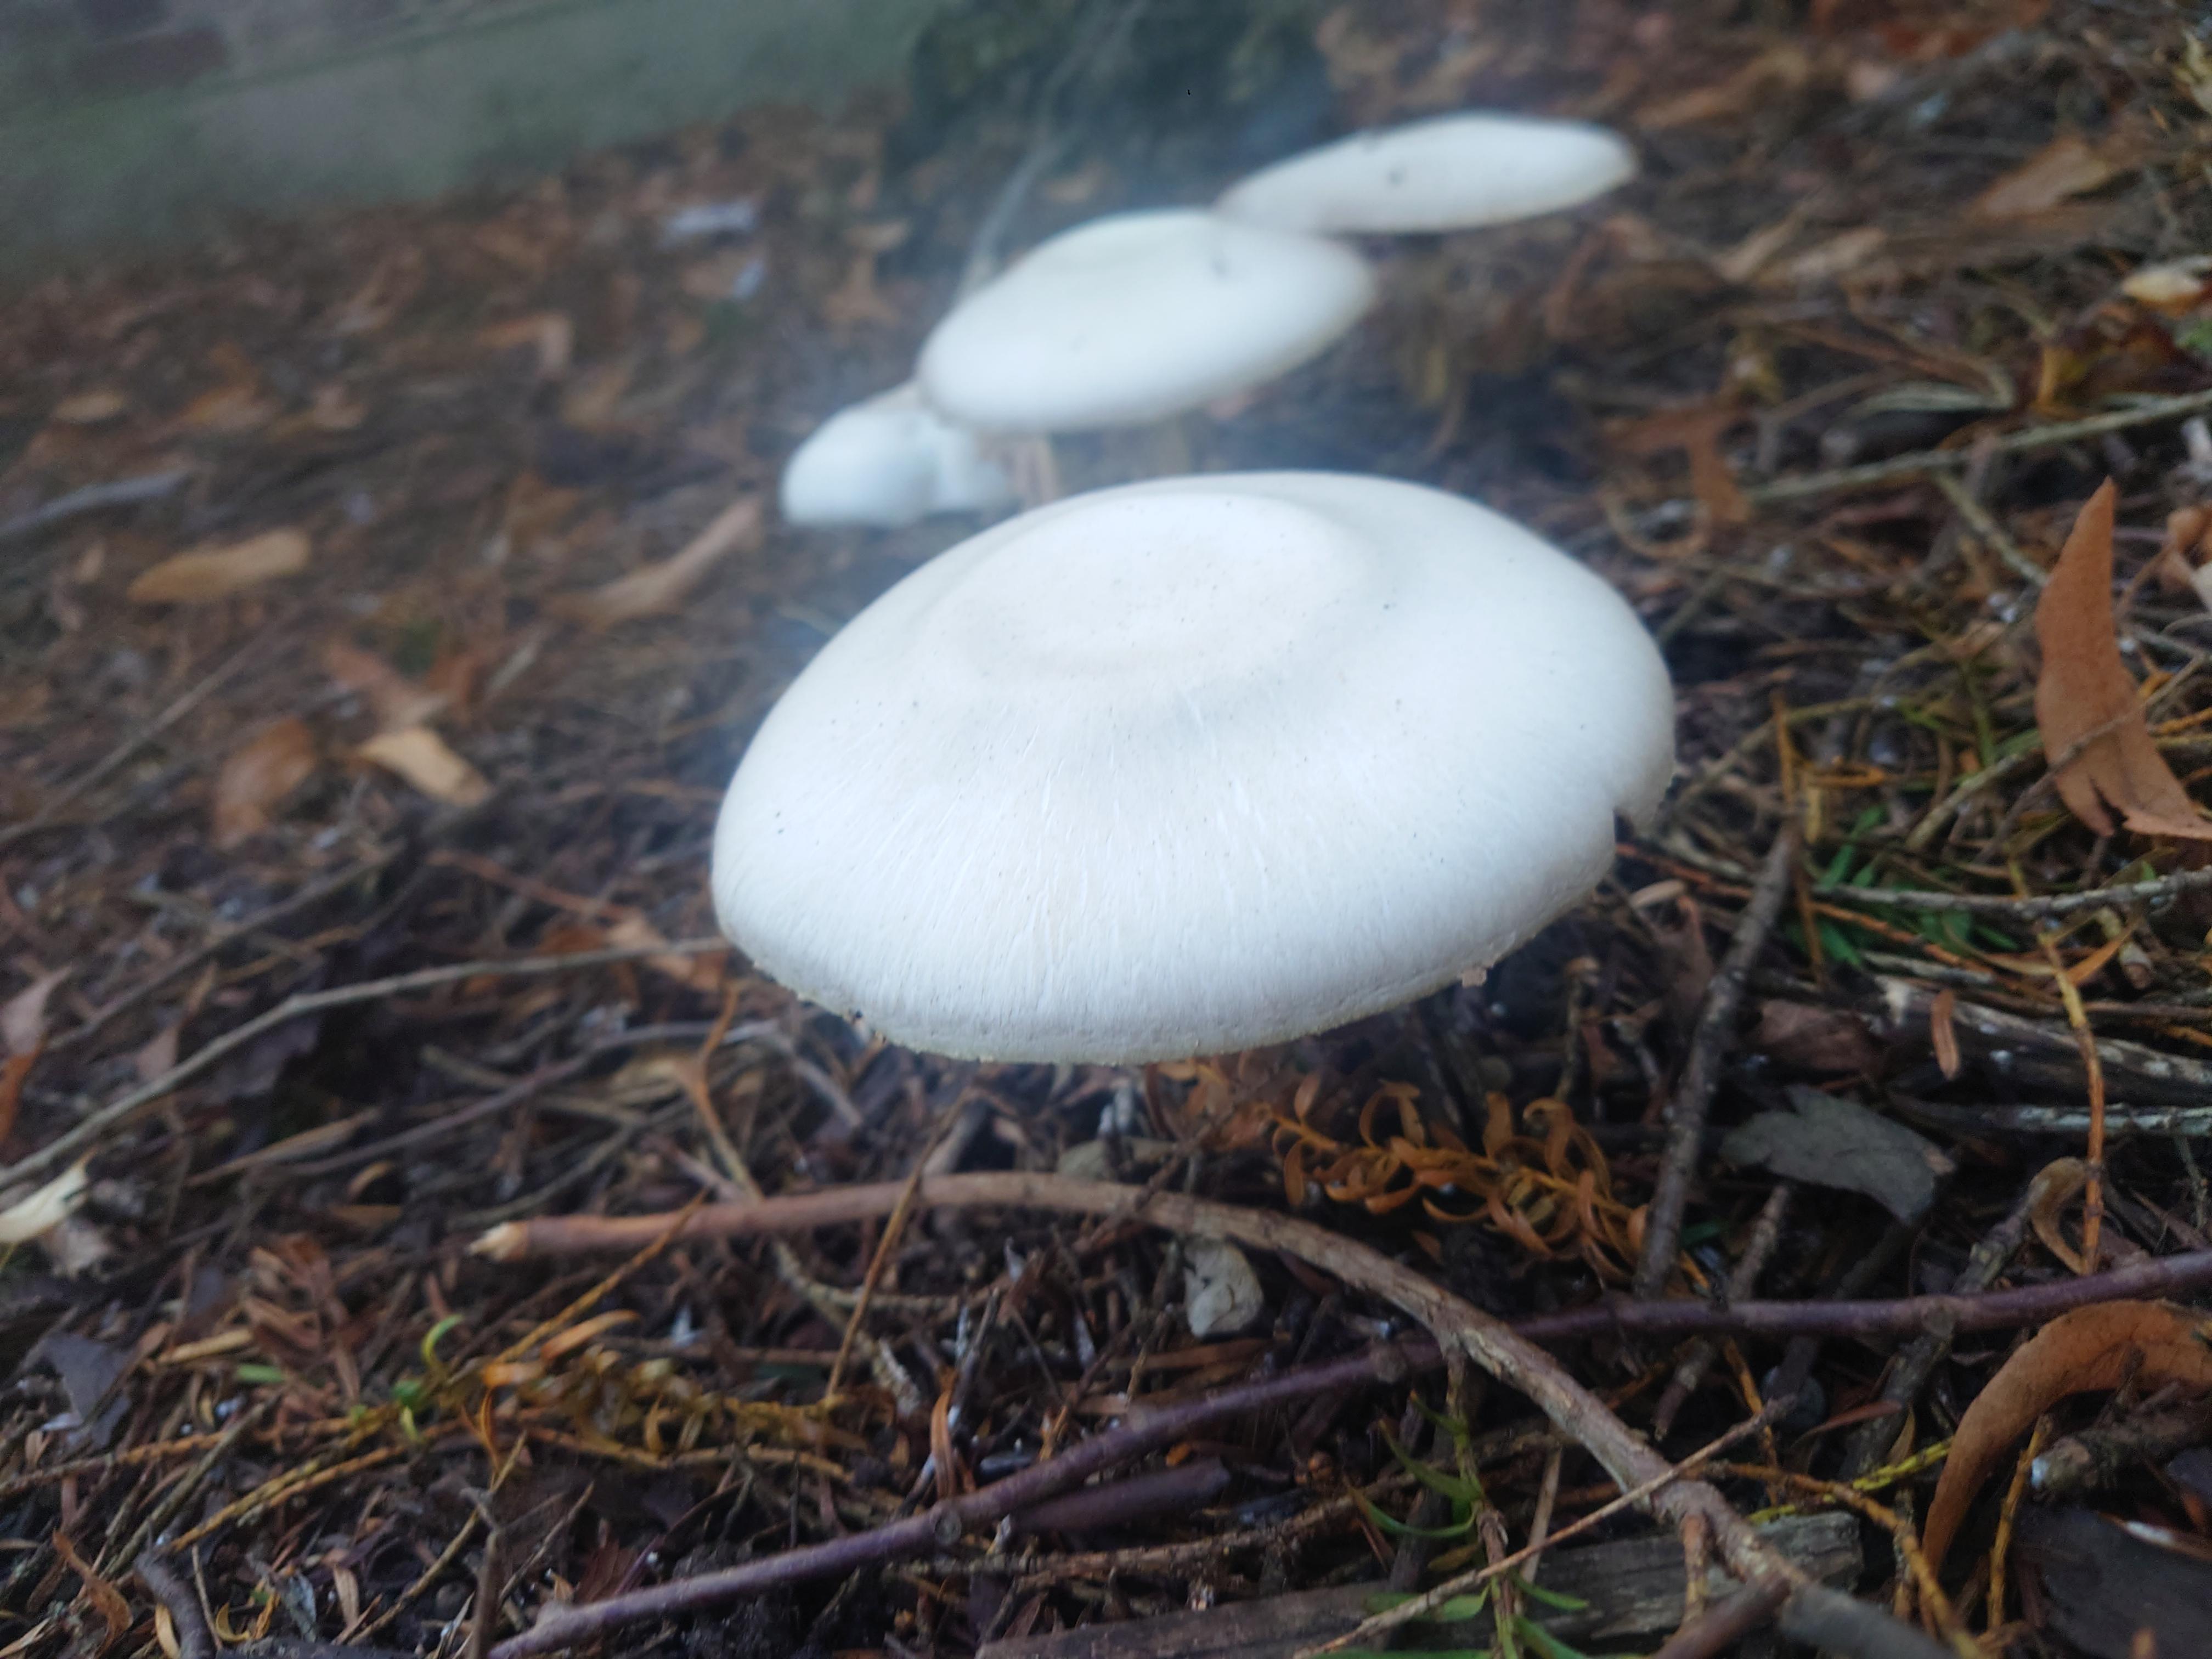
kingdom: Fungi
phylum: Basidiomycota
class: Agaricomycetes
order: Agaricales
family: Agaricaceae
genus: Agaricus
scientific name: Agaricus
